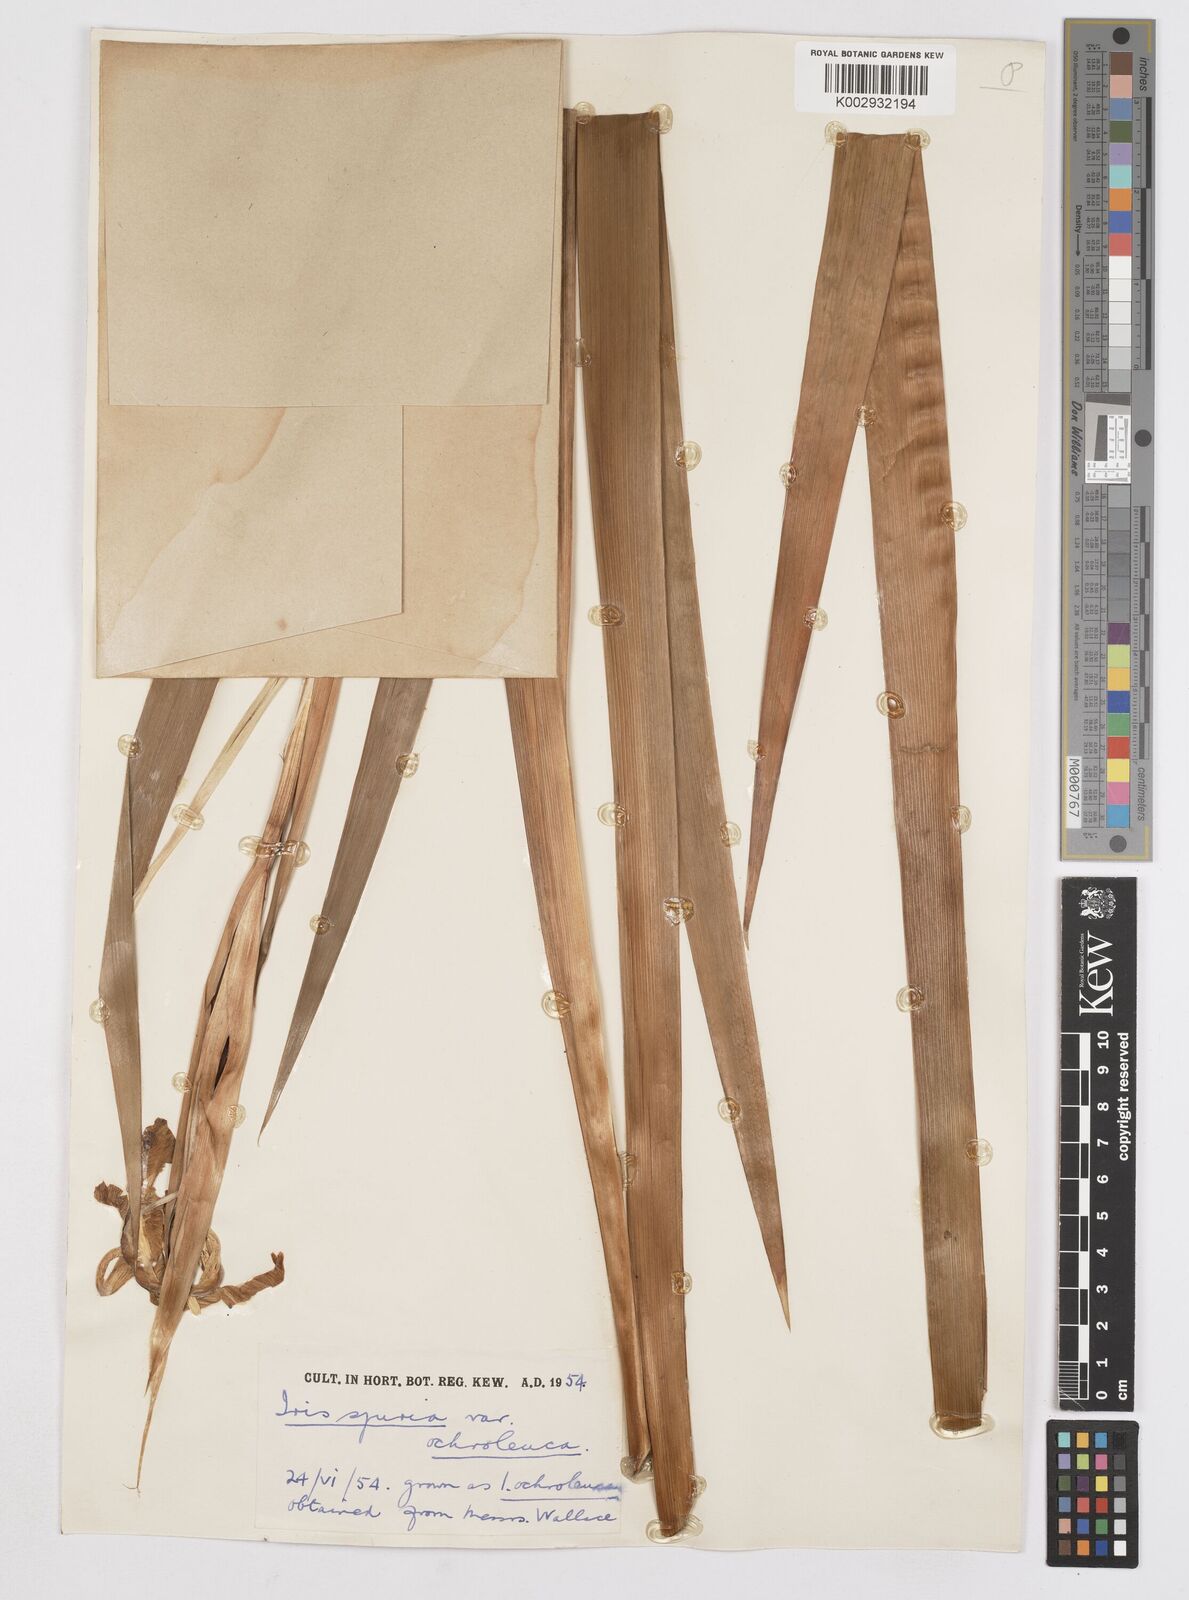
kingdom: Plantae
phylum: Tracheophyta
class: Liliopsida
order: Asparagales
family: Iridaceae
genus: Iris
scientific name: Iris orientalis
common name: Turkish iris
